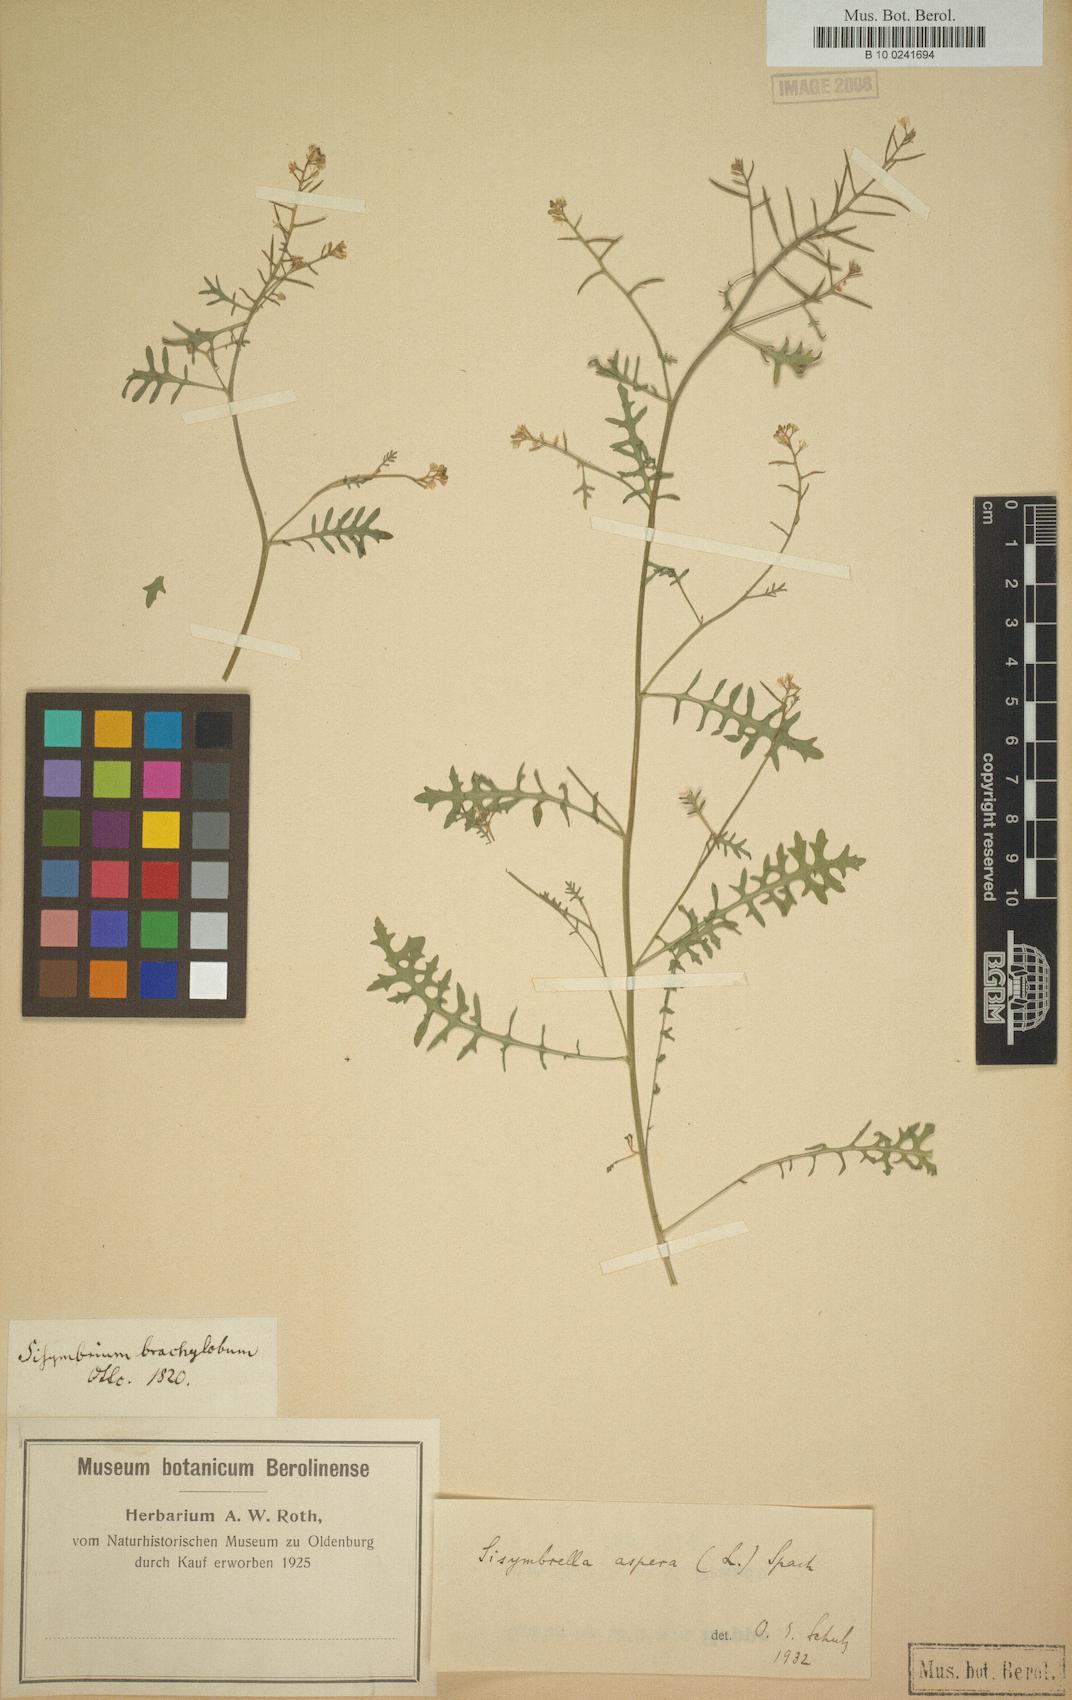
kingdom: Plantae
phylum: Tracheophyta
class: Magnoliopsida
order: Brassicales
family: Brassicaceae
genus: Sisymbrella
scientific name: Sisymbrella aspera
